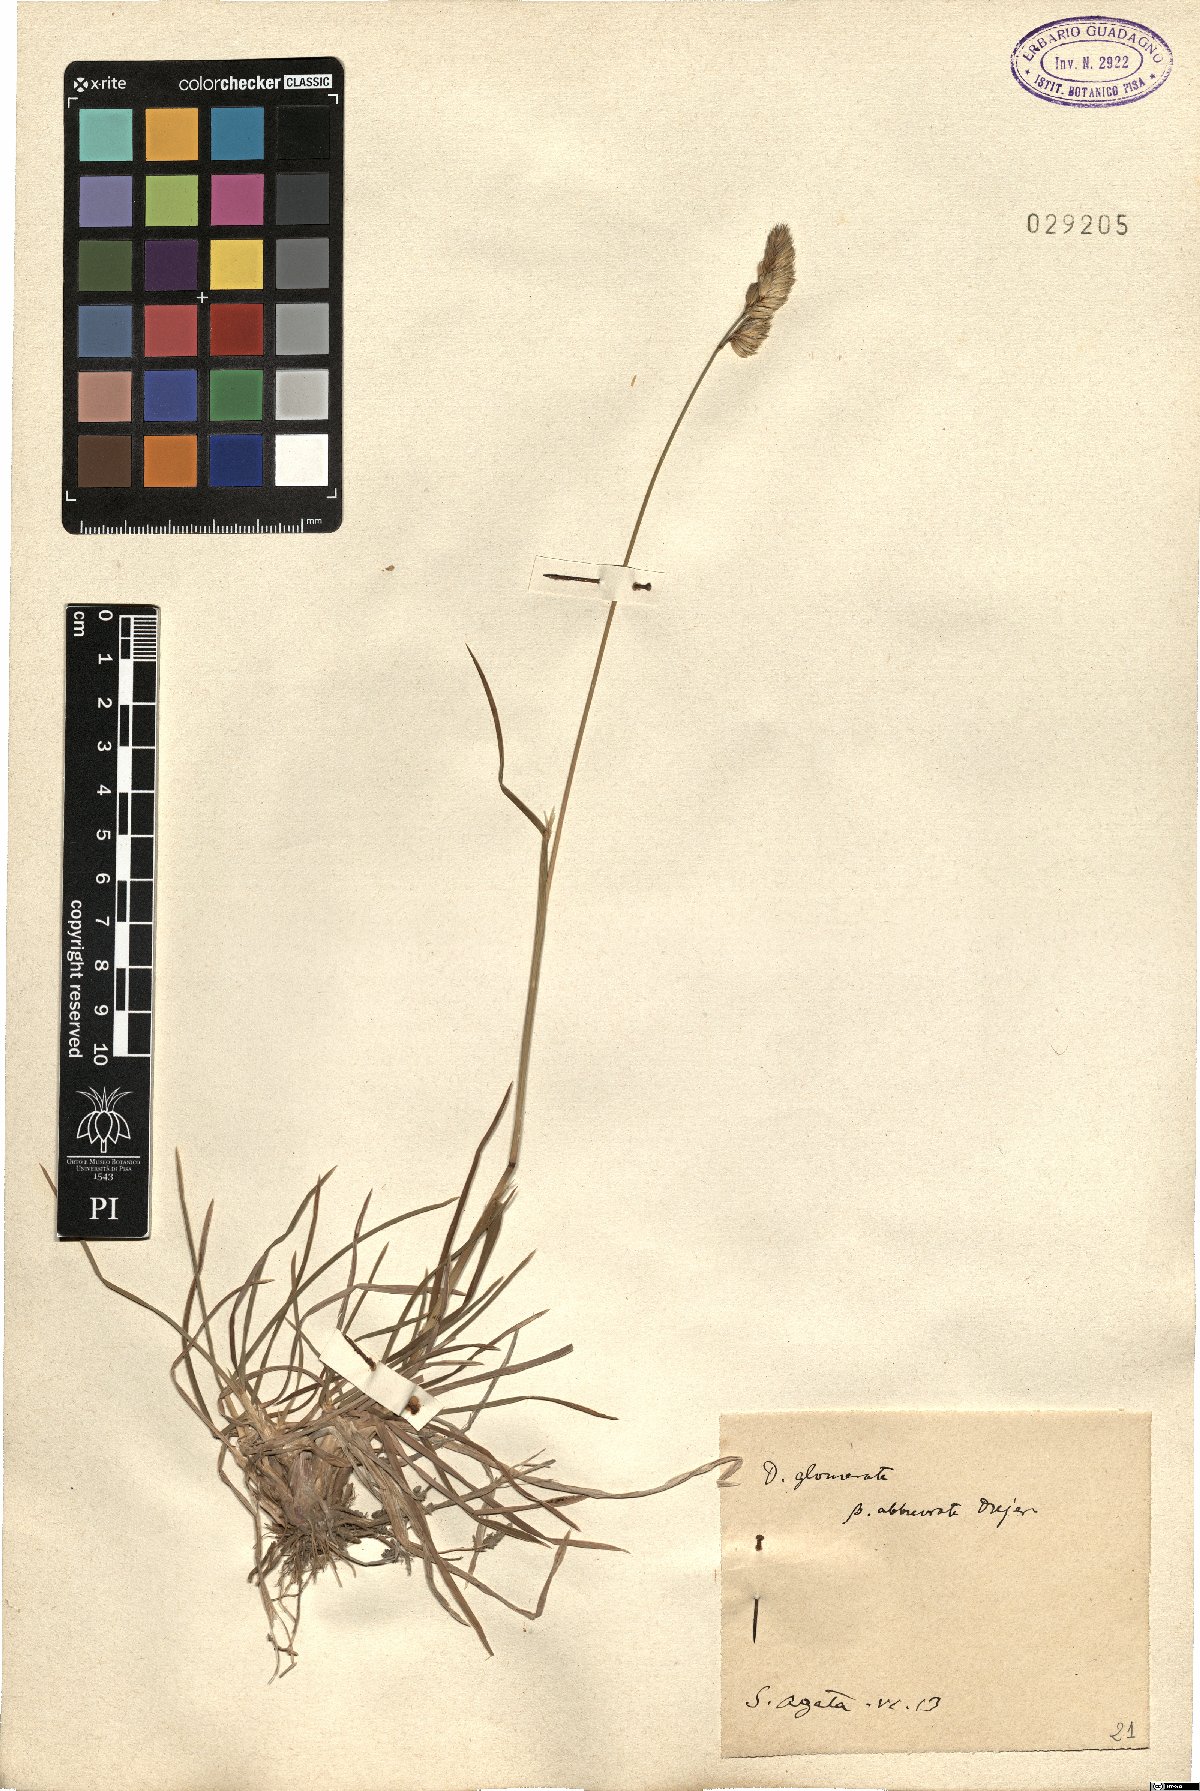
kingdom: Plantae
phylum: Tracheophyta
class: Liliopsida
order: Poales
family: Poaceae
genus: Dactylis
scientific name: Dactylis glomerata
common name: Orchardgrass
